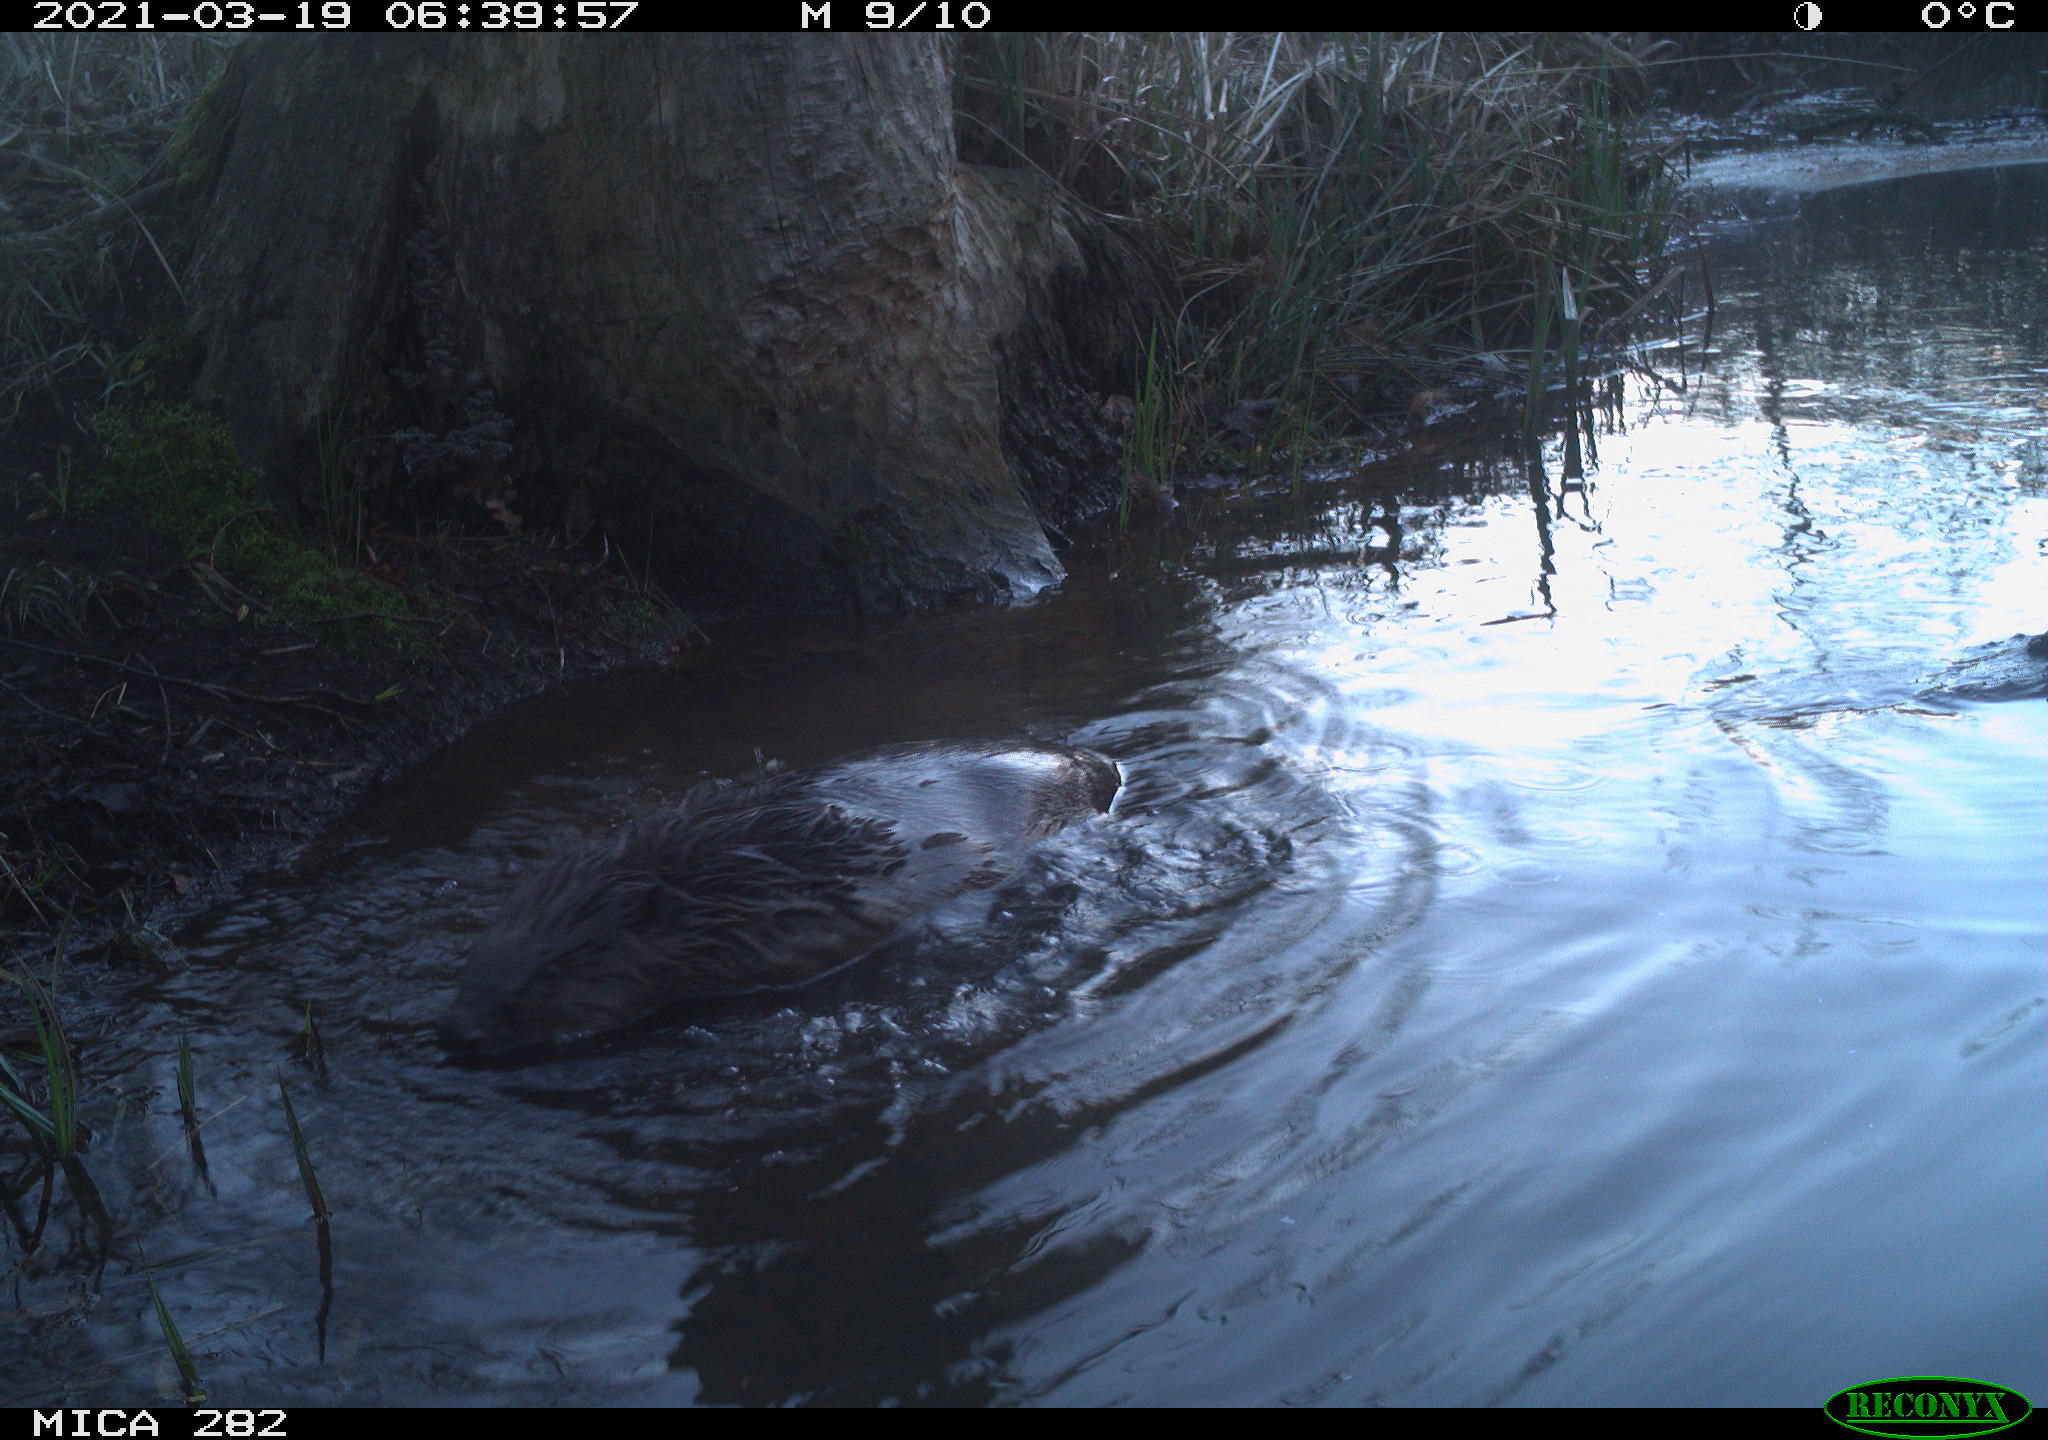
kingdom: Animalia
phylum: Chordata
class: Mammalia
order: Rodentia
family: Castoridae
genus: Castor
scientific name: Castor fiber
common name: Eurasian beaver
